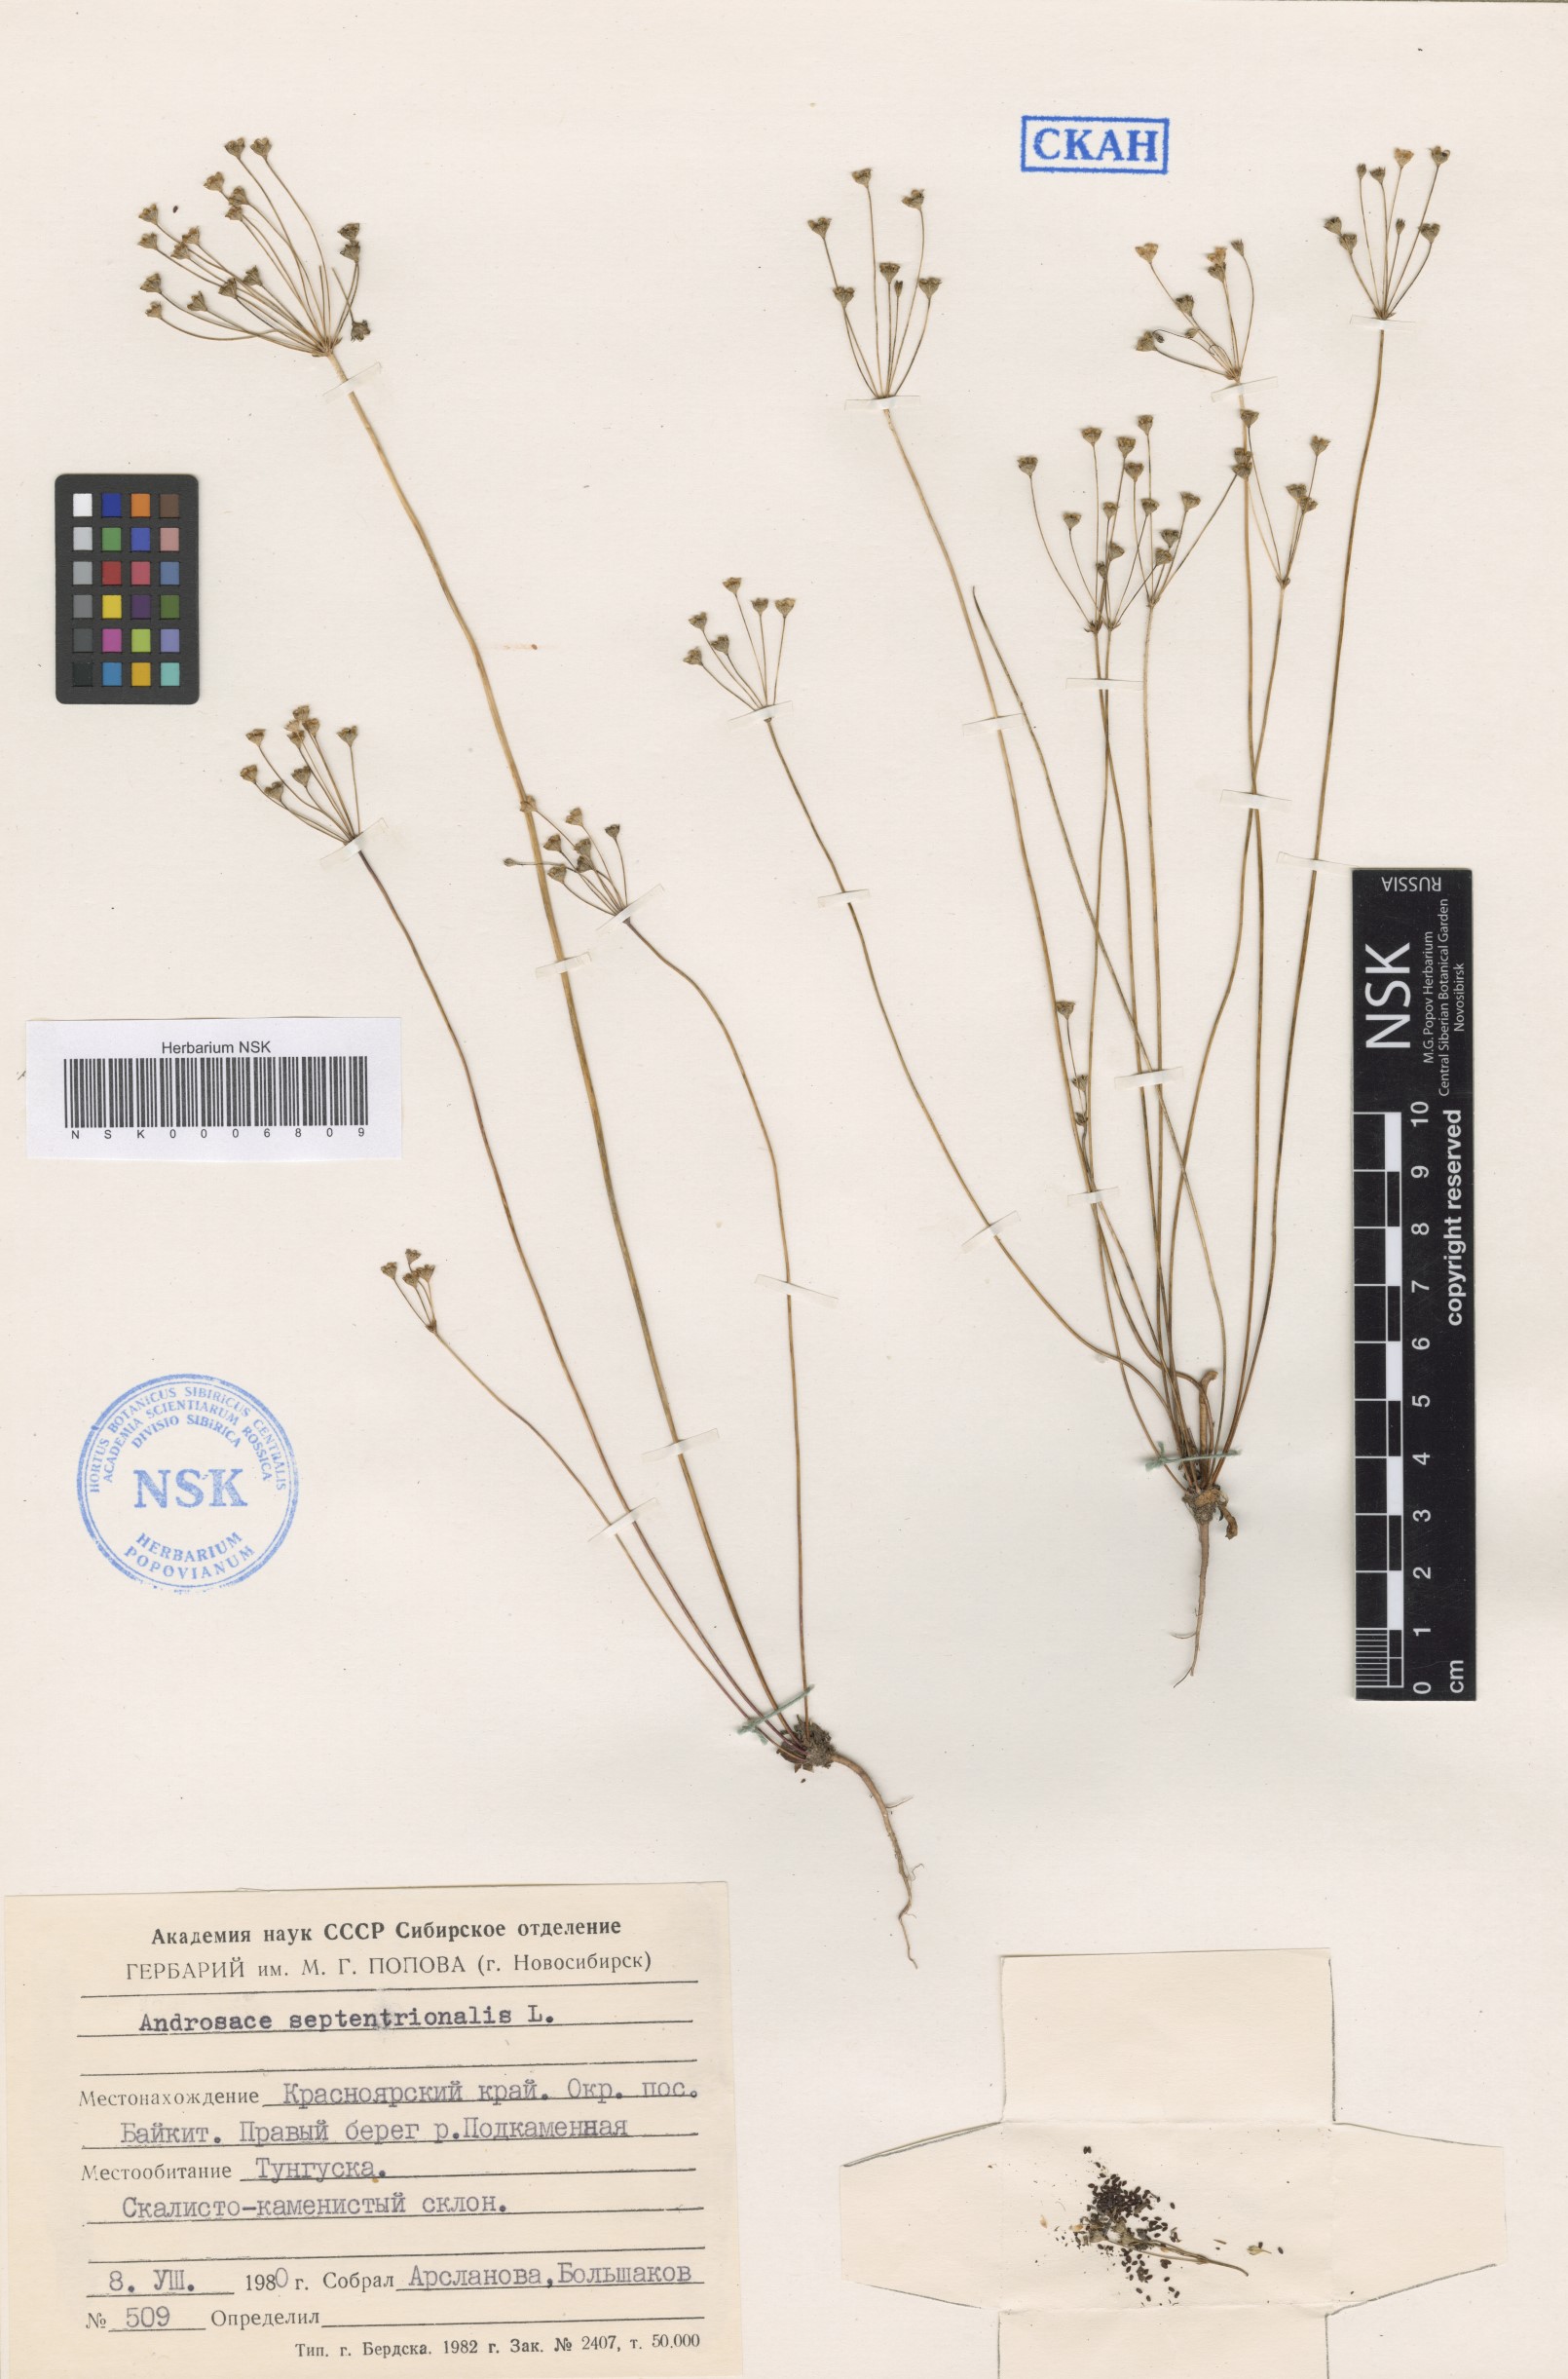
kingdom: Plantae
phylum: Tracheophyta
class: Magnoliopsida
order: Ericales
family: Primulaceae
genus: Androsace
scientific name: Androsace septentrionalis
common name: Hairy northern fairy-candelabra
